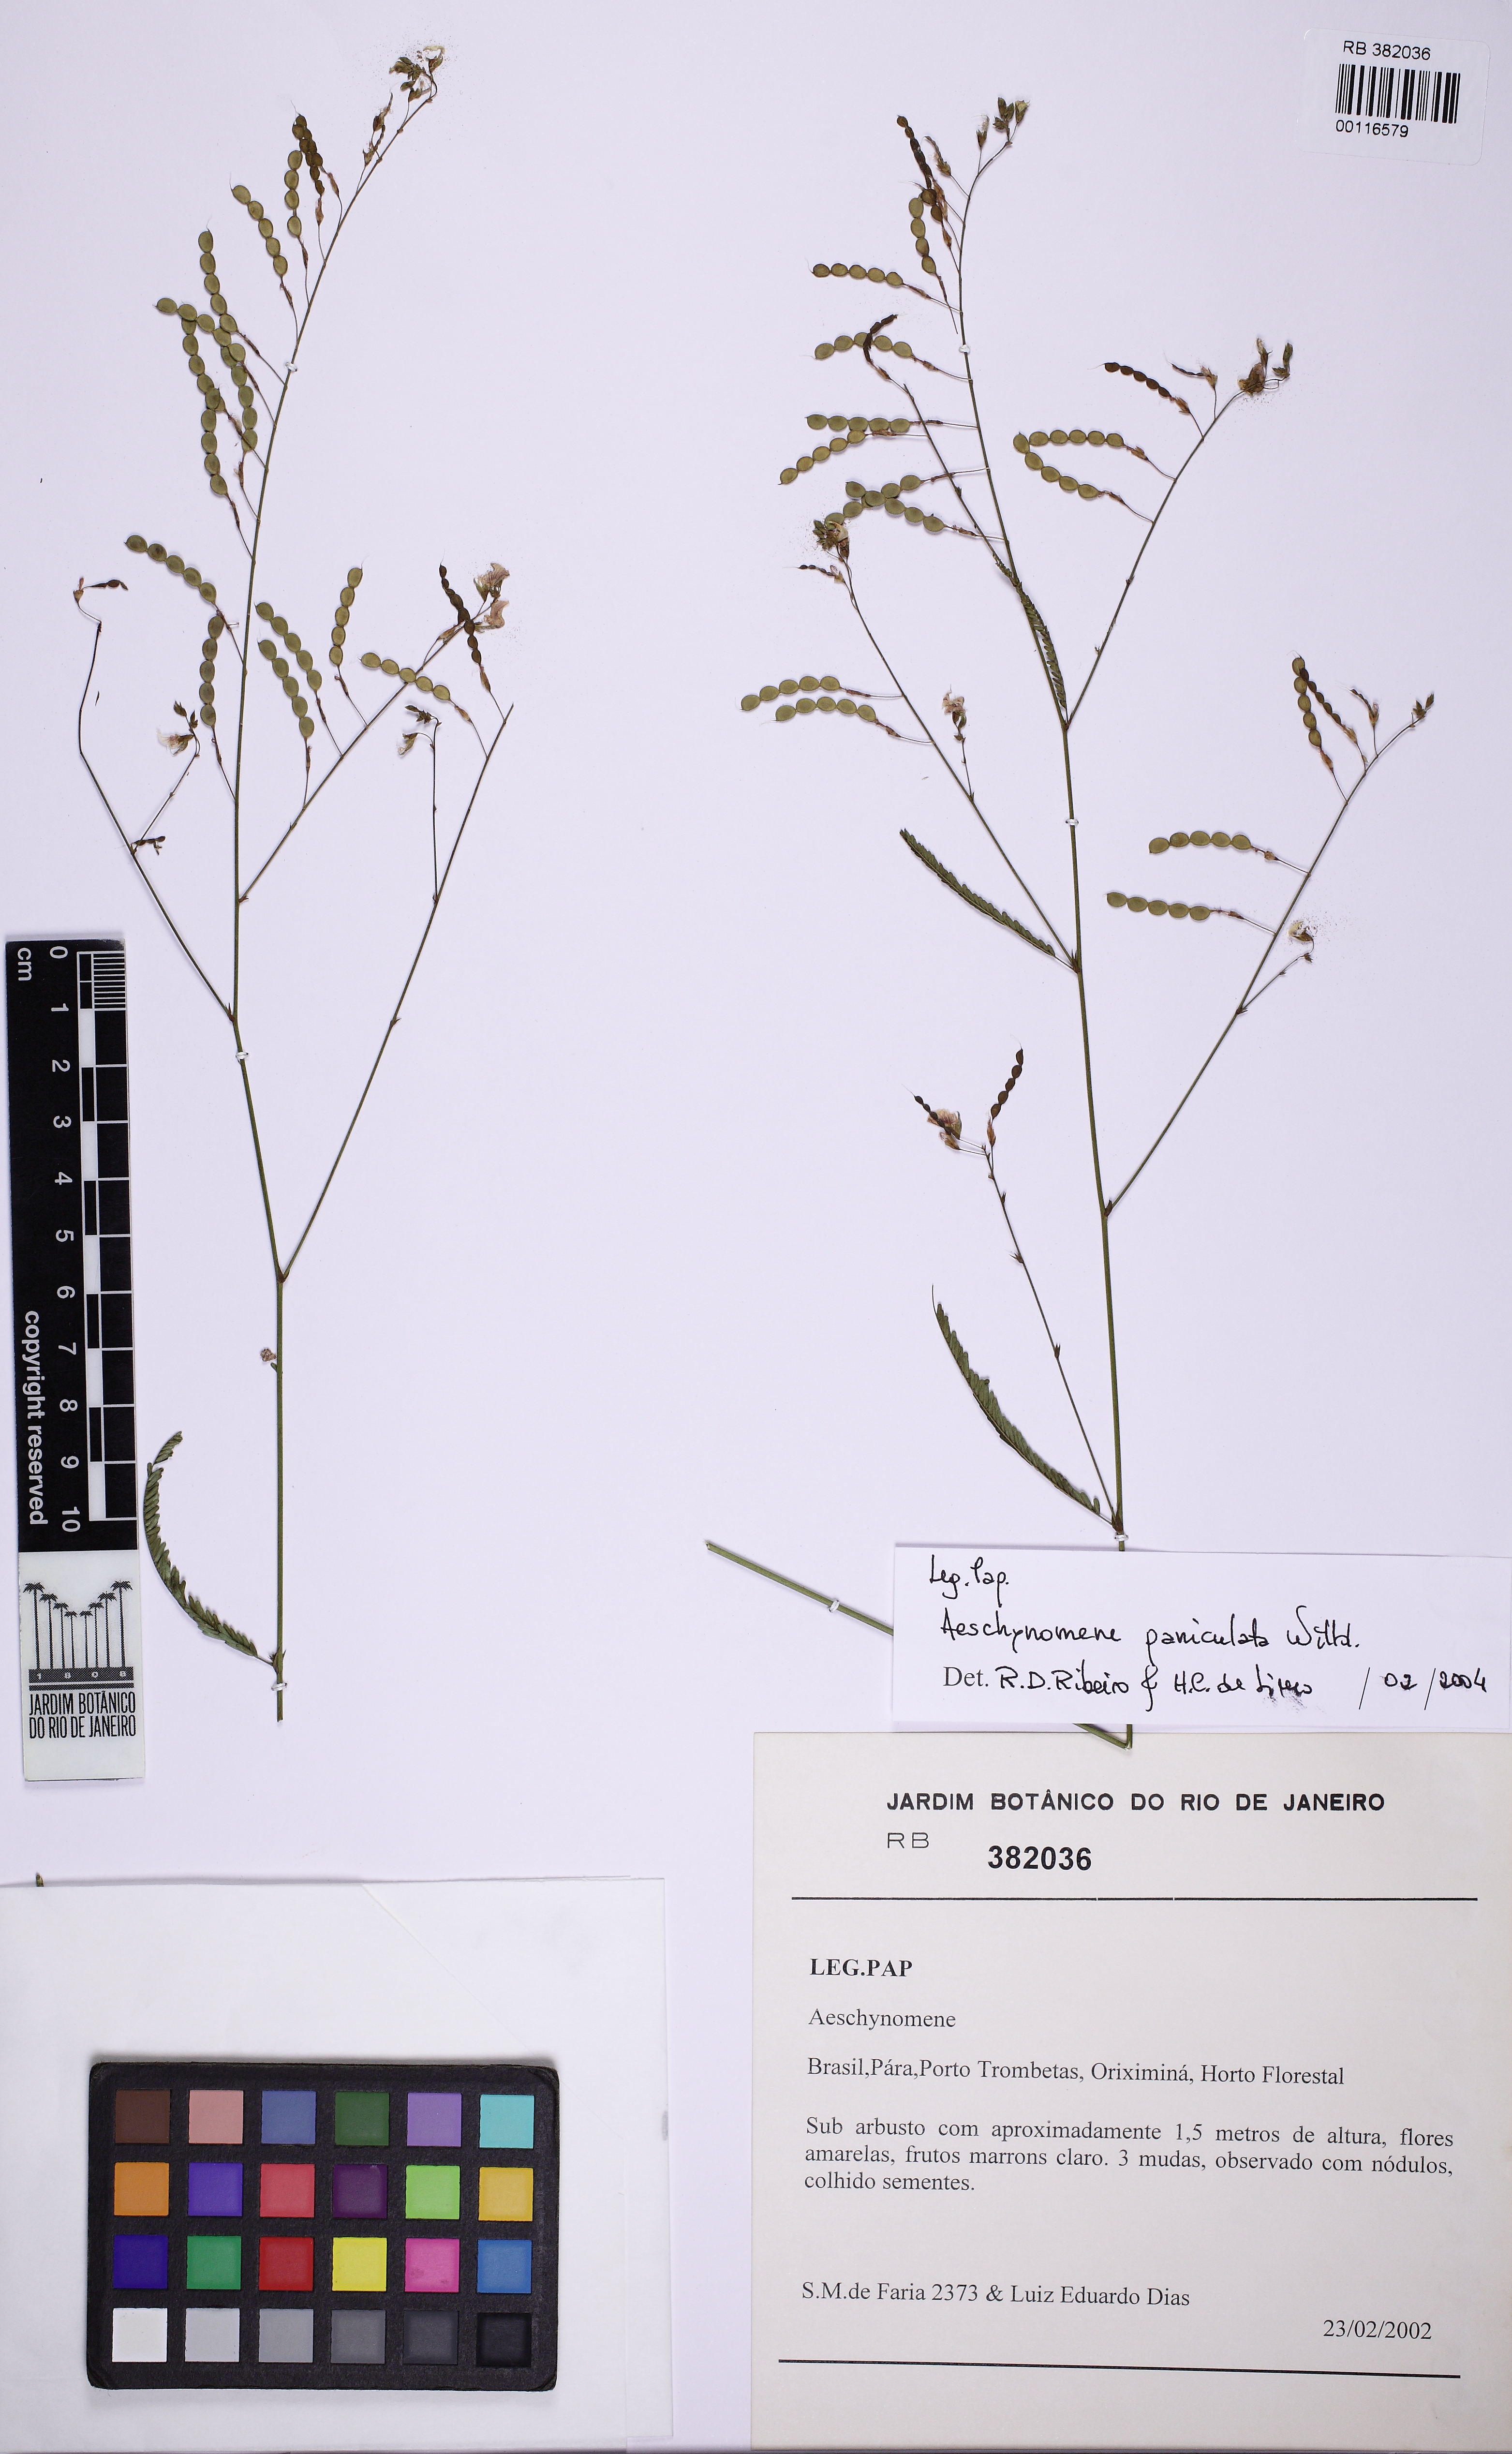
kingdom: Plantae
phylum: Tracheophyta
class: Magnoliopsida
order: Fabales
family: Fabaceae
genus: Ctenodon
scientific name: Ctenodon paniculatus
